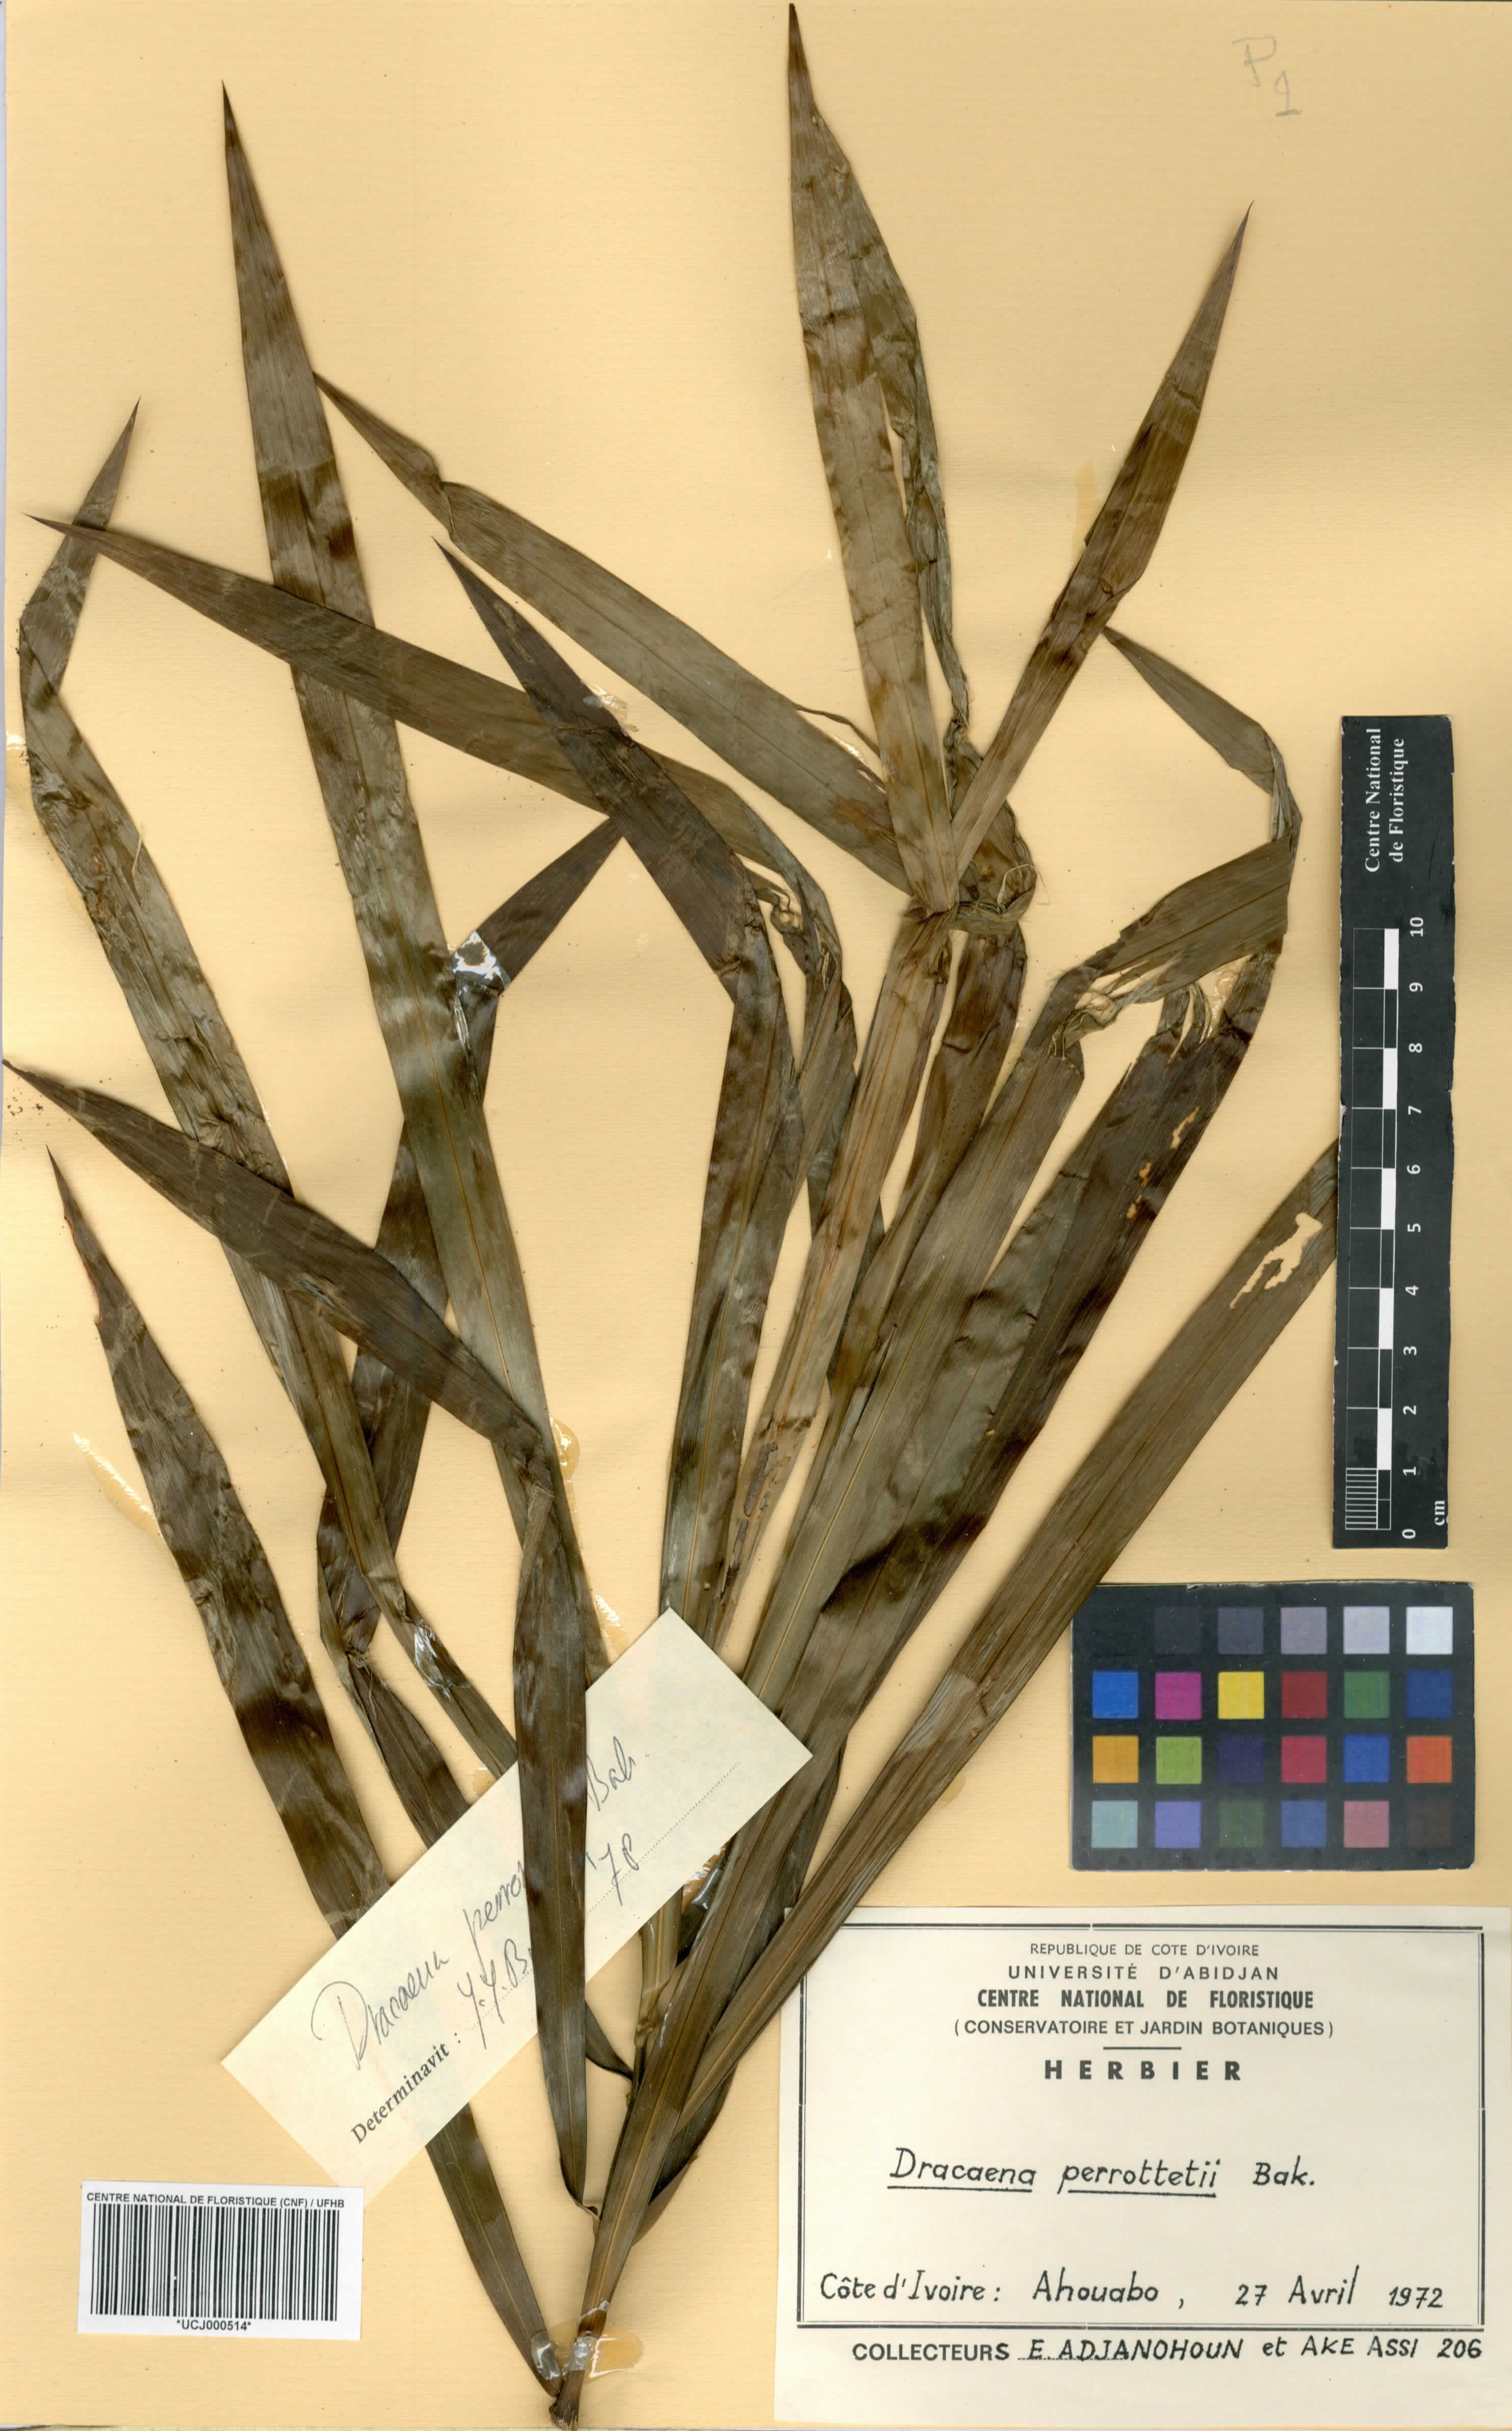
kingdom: Plantae
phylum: Tracheophyta
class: Liliopsida
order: Asparagales
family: Asparagaceae
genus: Dracaena
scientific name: Dracaena perrottetii
